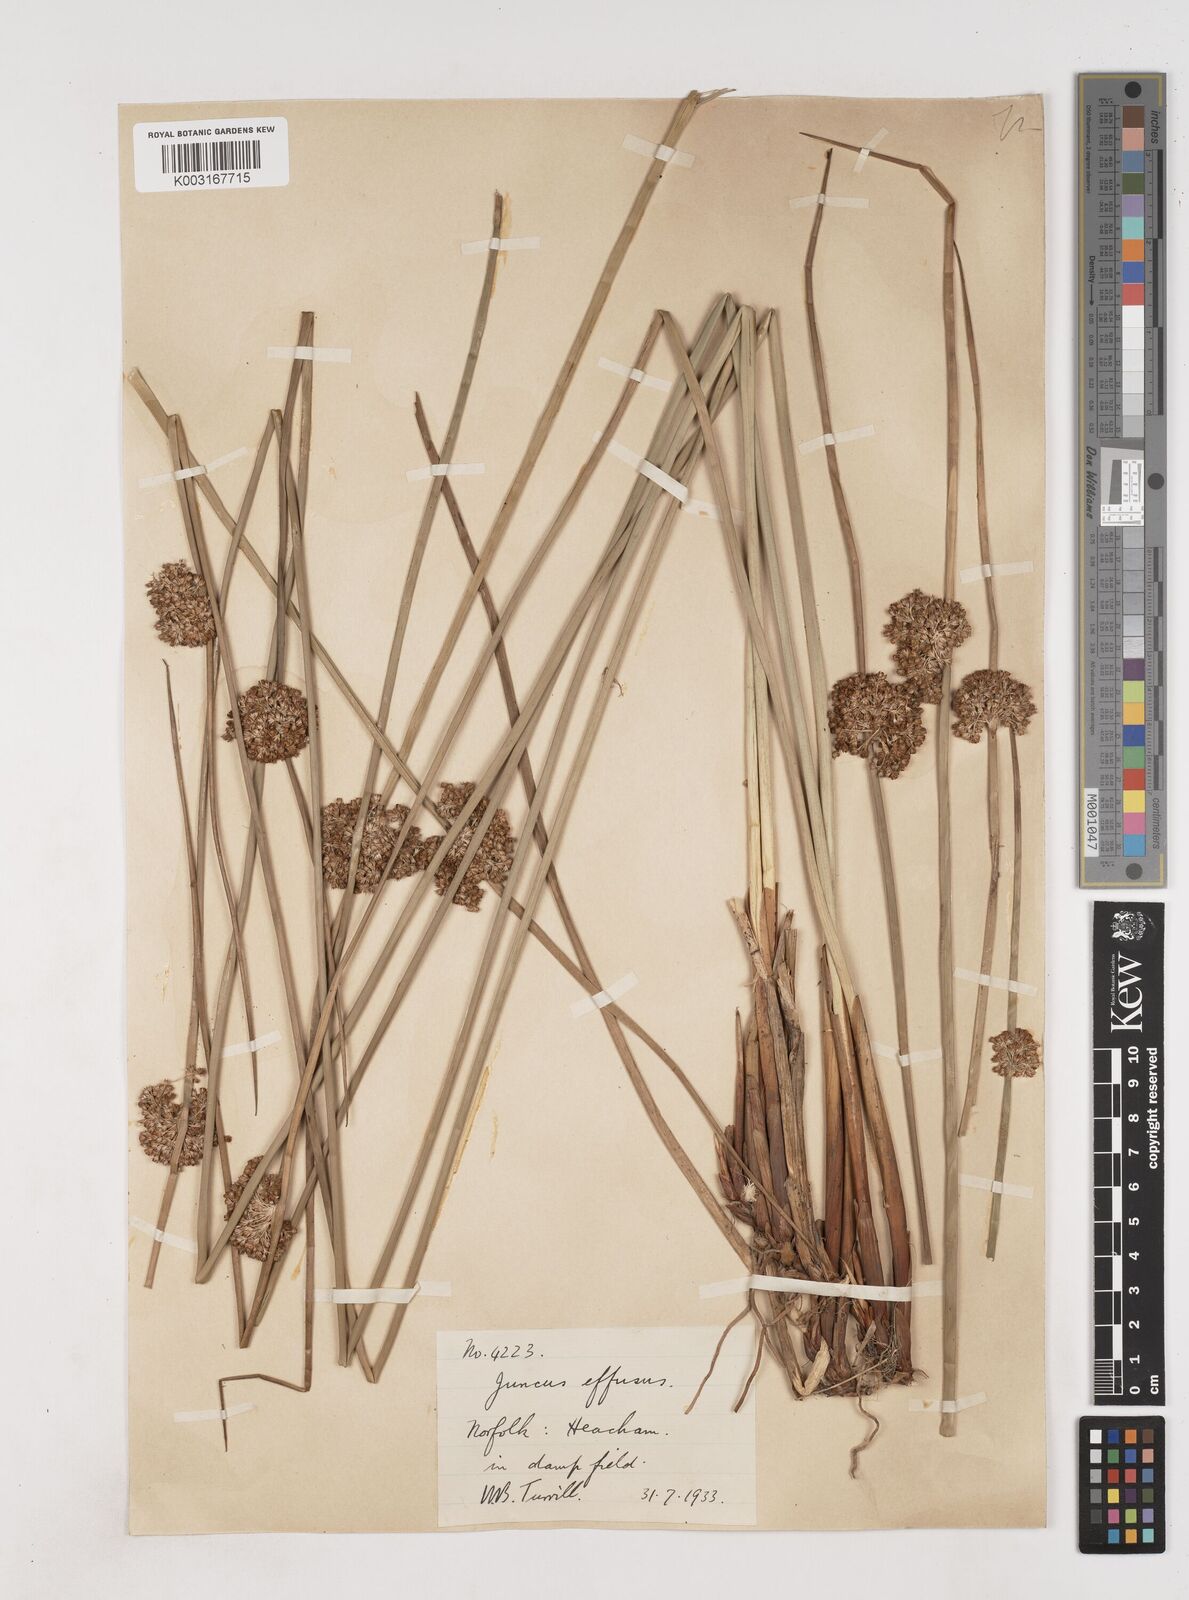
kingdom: Plantae
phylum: Tracheophyta
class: Liliopsida
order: Poales
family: Juncaceae
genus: Juncus
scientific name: Juncus effusus
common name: Soft rush
